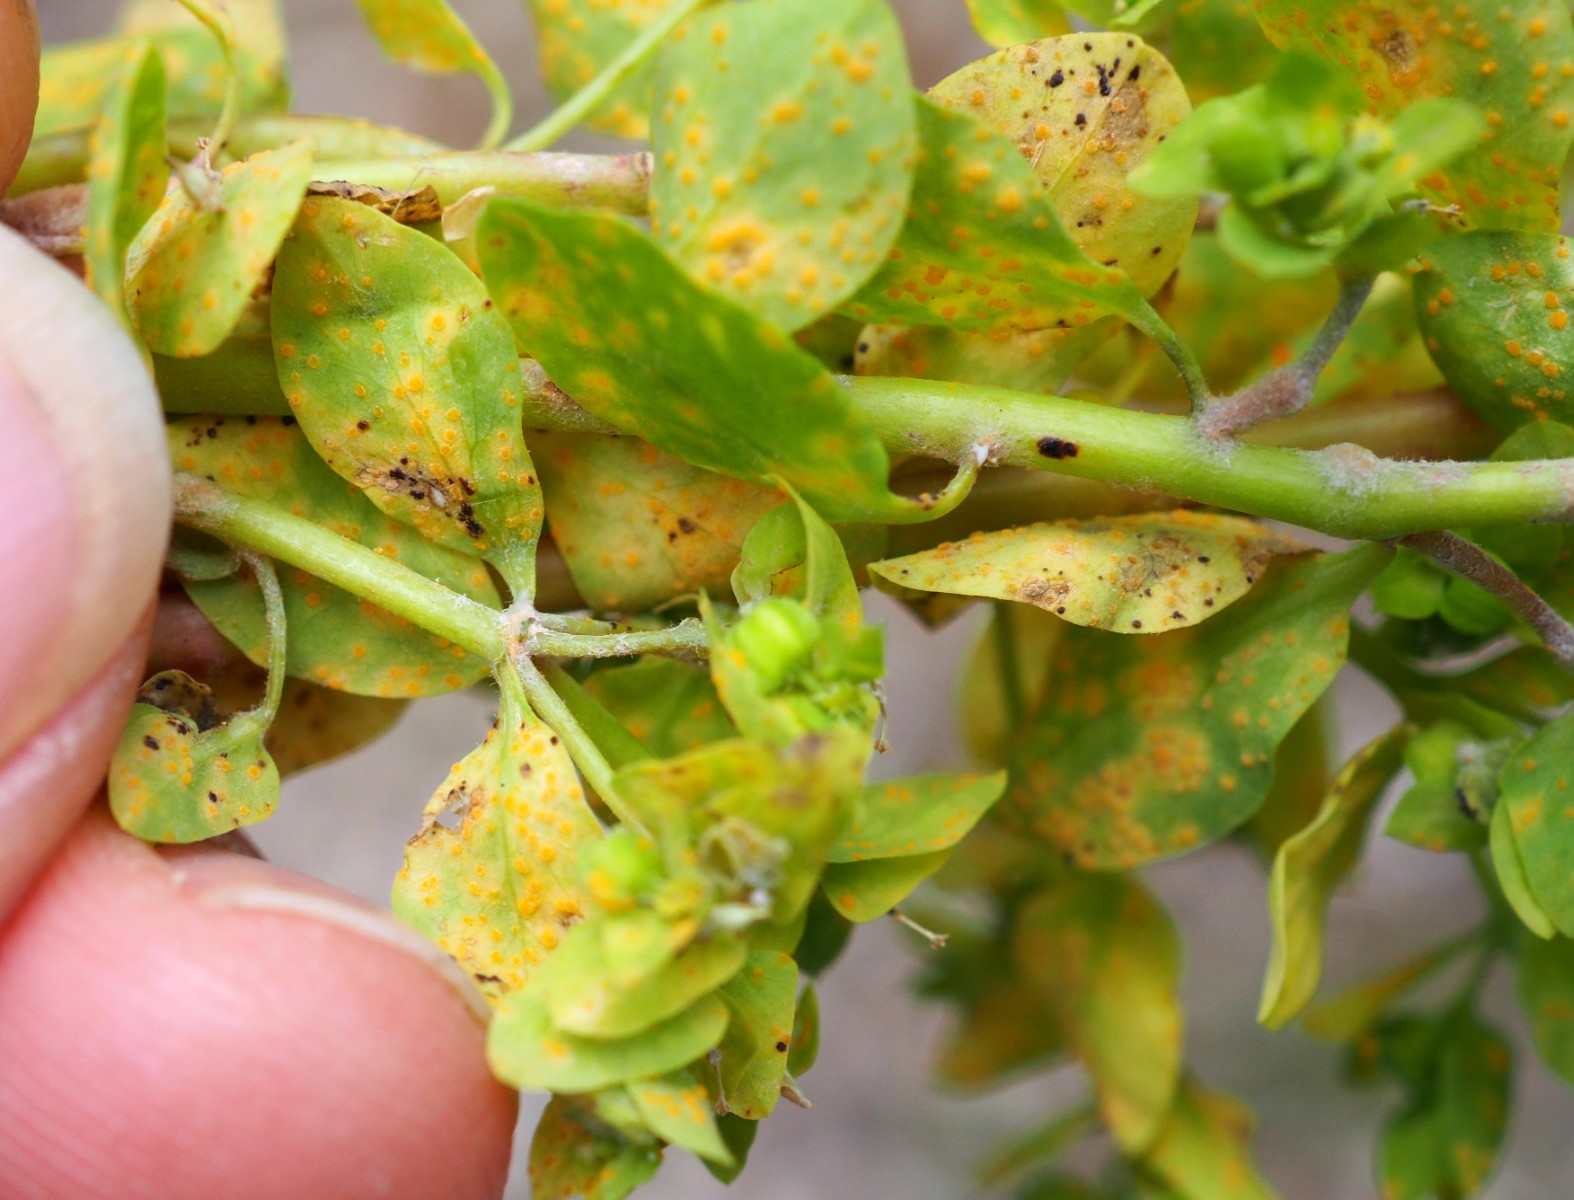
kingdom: Fungi
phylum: Basidiomycota
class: Pucciniomycetes
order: Pucciniales
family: Melampsoraceae
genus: Melampsora
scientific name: Melampsora euphorbiae
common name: vortemælk-skorperust
